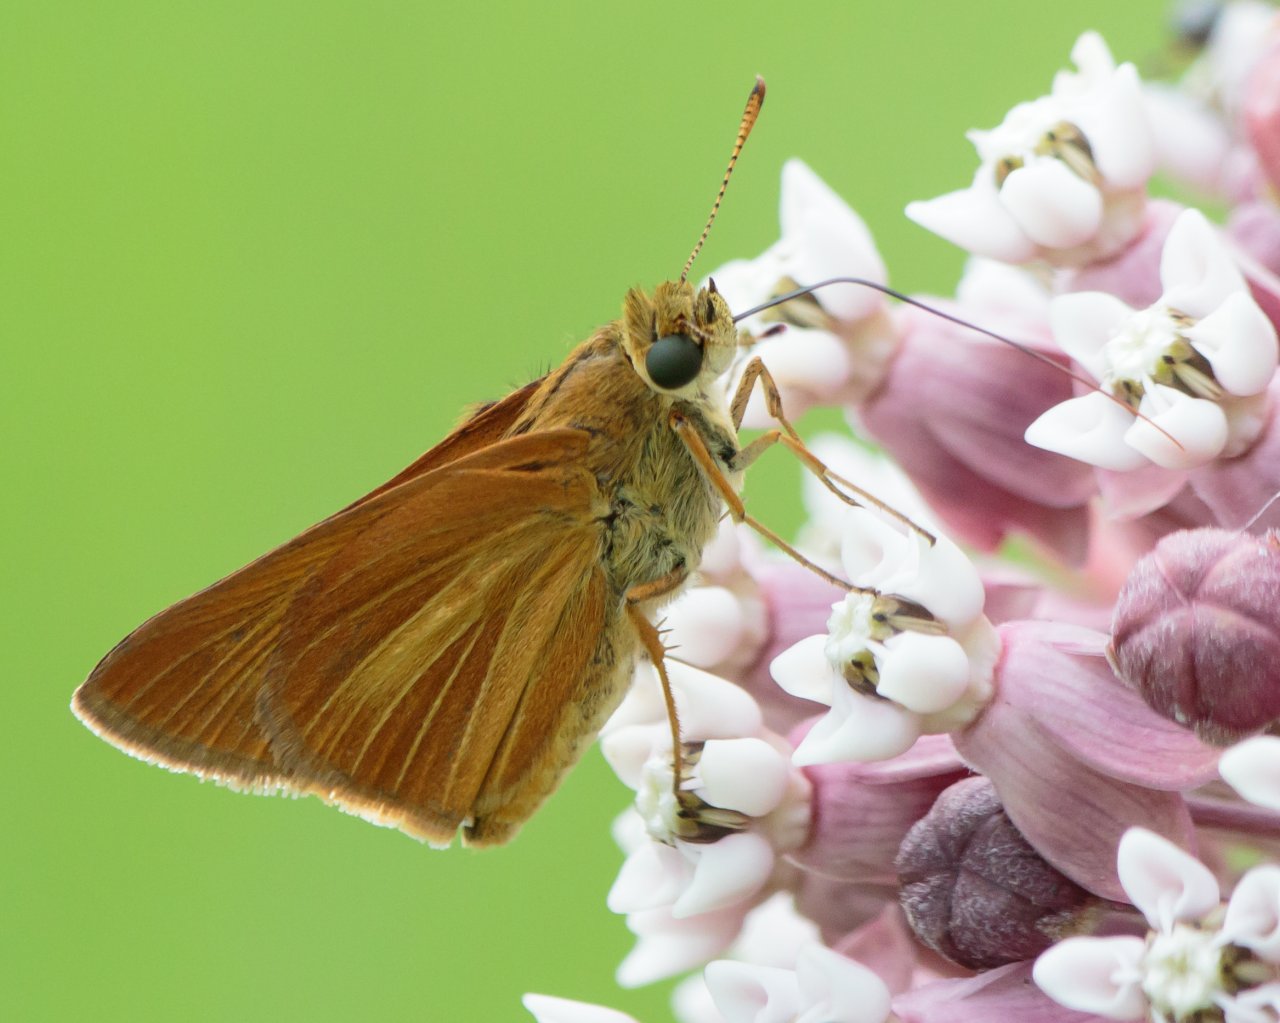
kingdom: Animalia
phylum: Arthropoda
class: Insecta
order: Lepidoptera
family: Hesperiidae
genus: Euphyes
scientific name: Euphyes dion
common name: Dion Skipper
